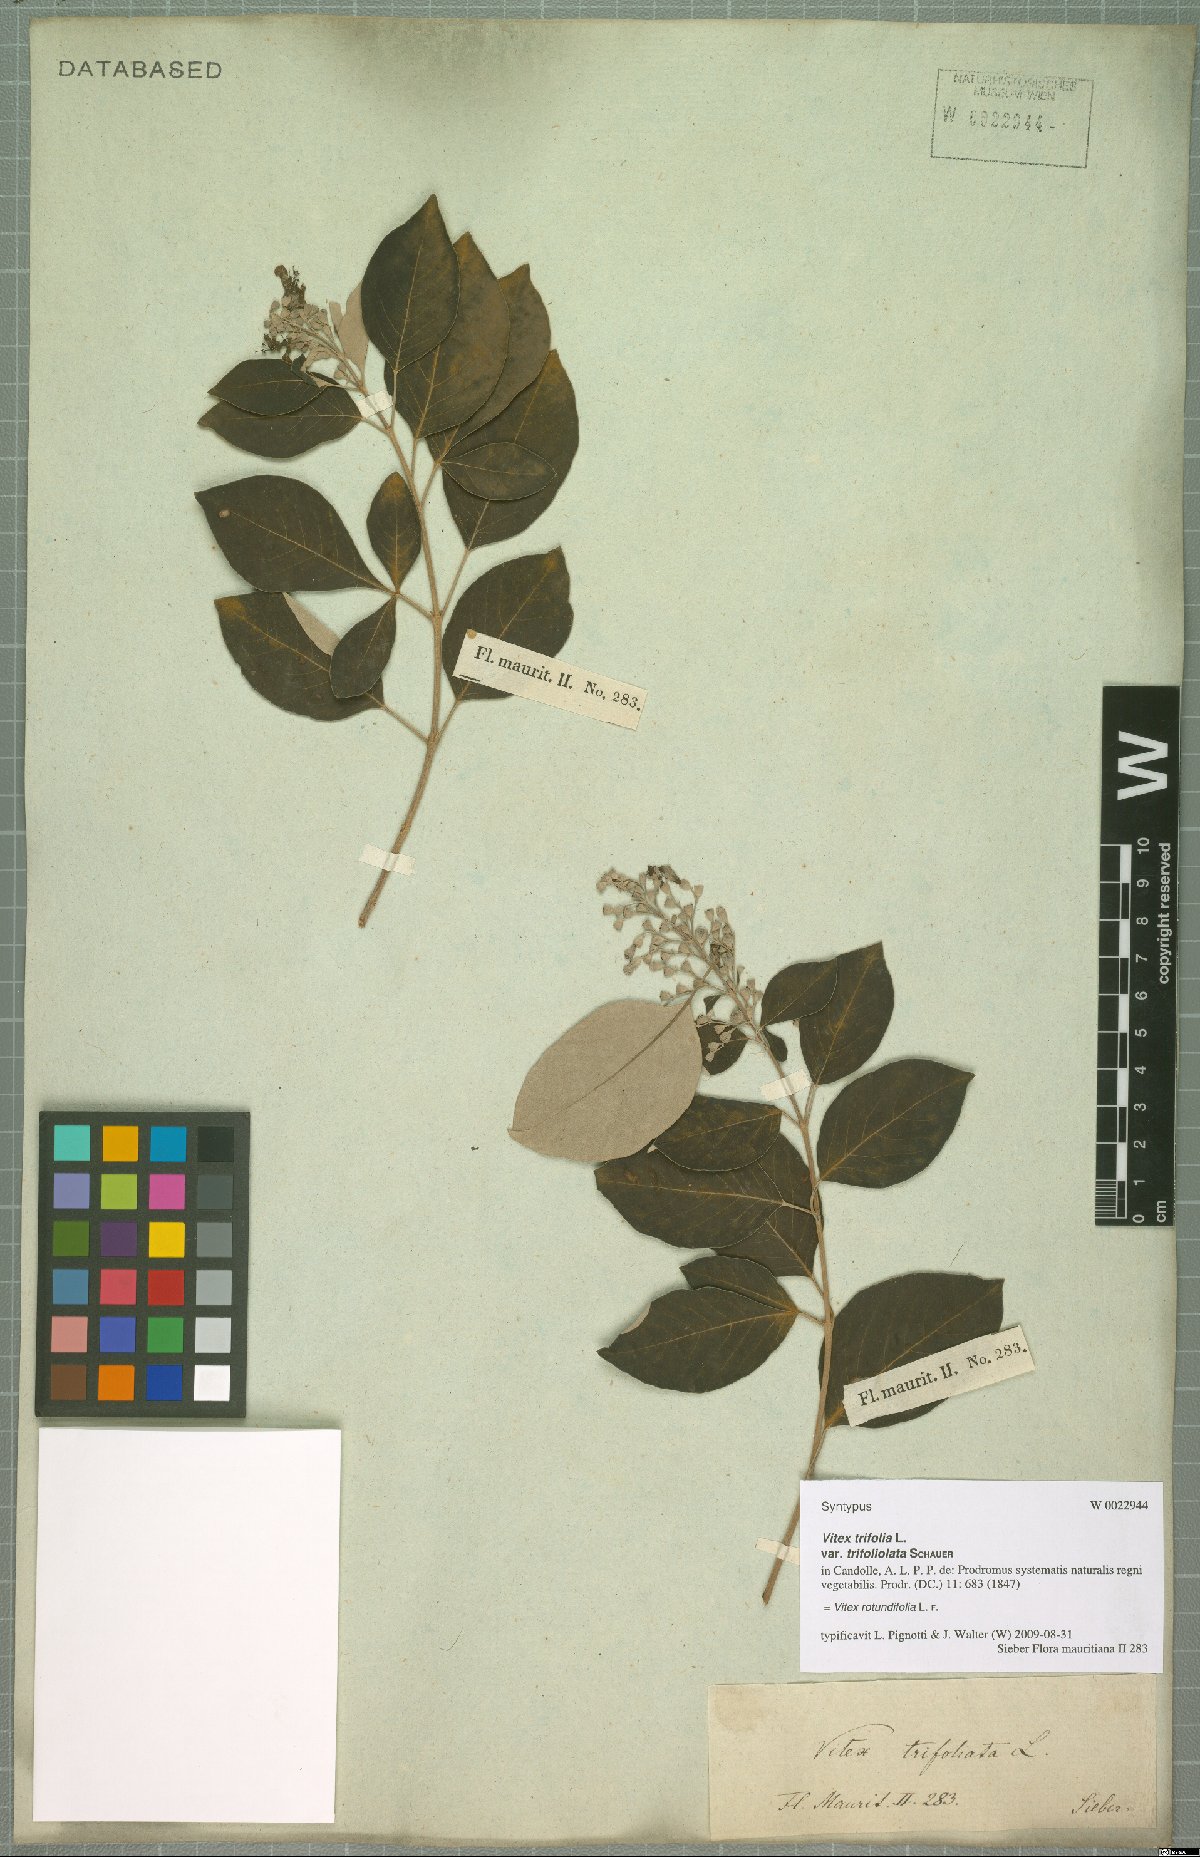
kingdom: Plantae
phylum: Tracheophyta
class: Magnoliopsida
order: Lamiales
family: Lamiaceae
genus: Vitex
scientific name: Vitex rotundifolia
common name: Beach vitex
